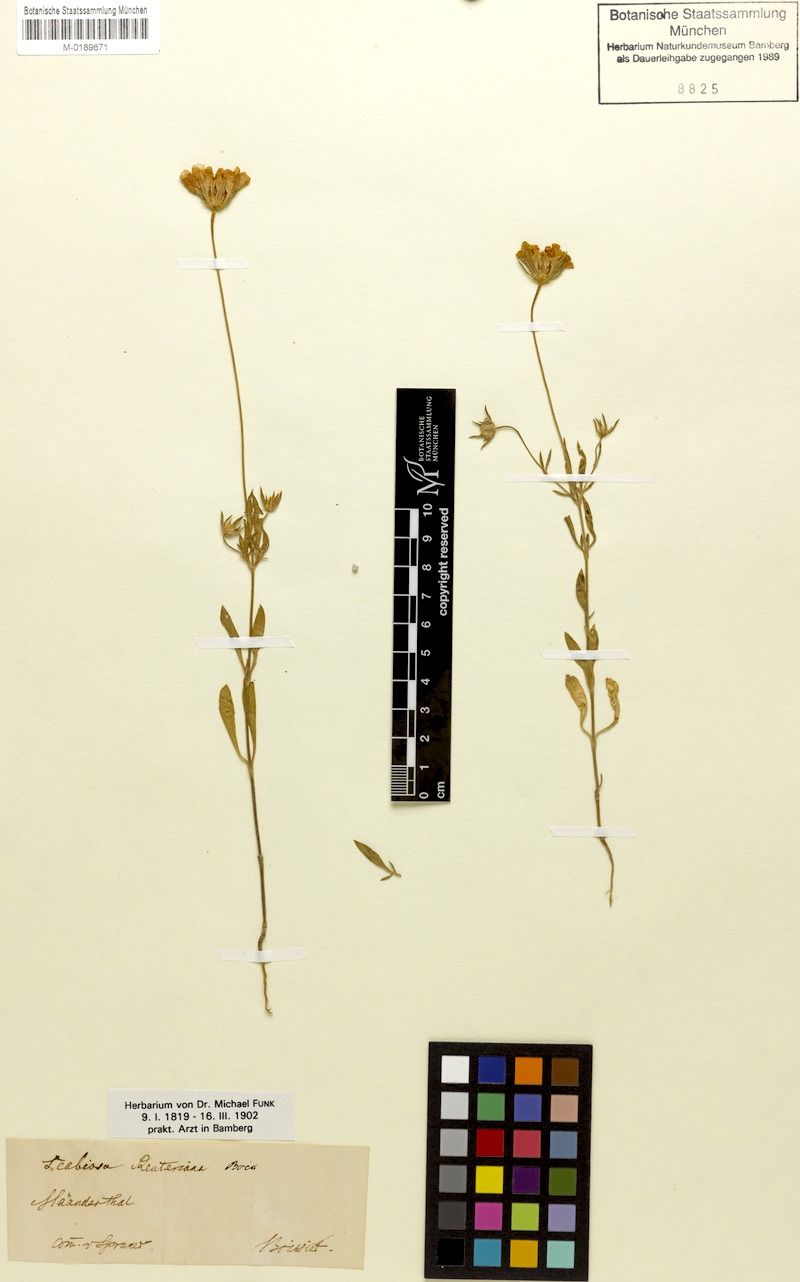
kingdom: Plantae
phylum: Tracheophyta
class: Magnoliopsida
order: Dipsacales
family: Caprifoliaceae
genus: Lomelosia
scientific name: Lomelosia reuteriana
